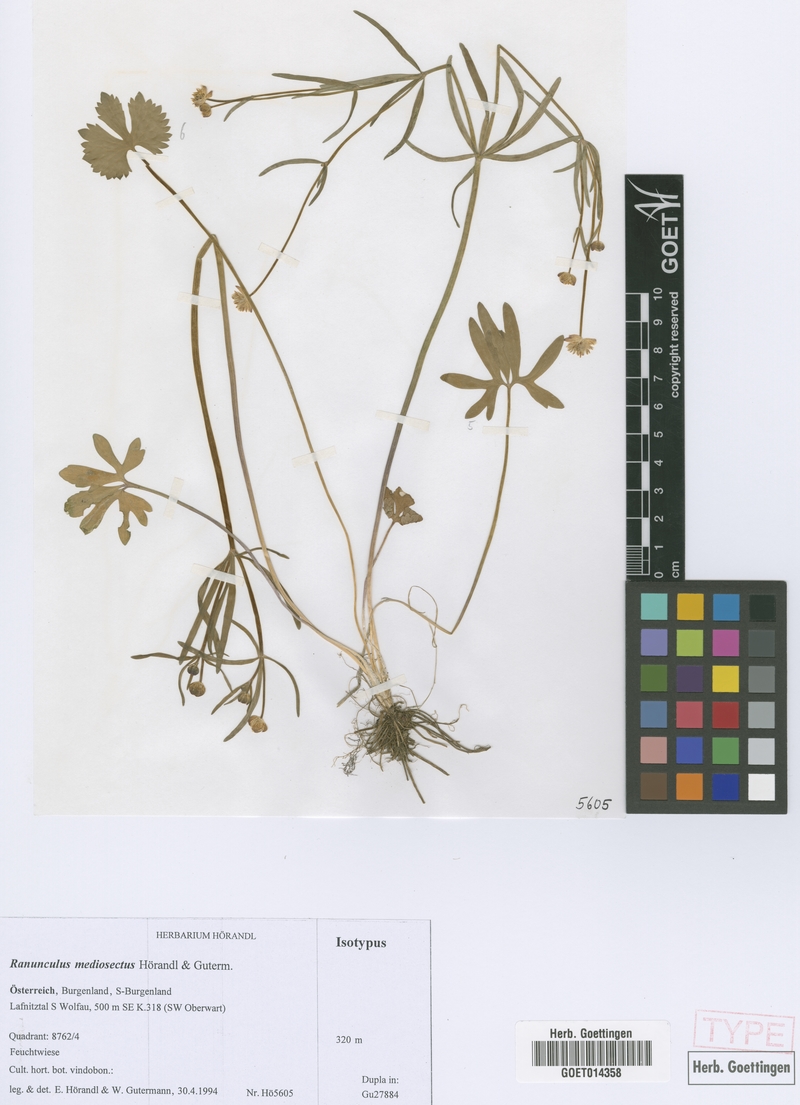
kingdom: Plantae
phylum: Tracheophyta
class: Magnoliopsida
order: Ranunculales
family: Ranunculaceae
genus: Ranunculus
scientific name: Ranunculus mediosectus
